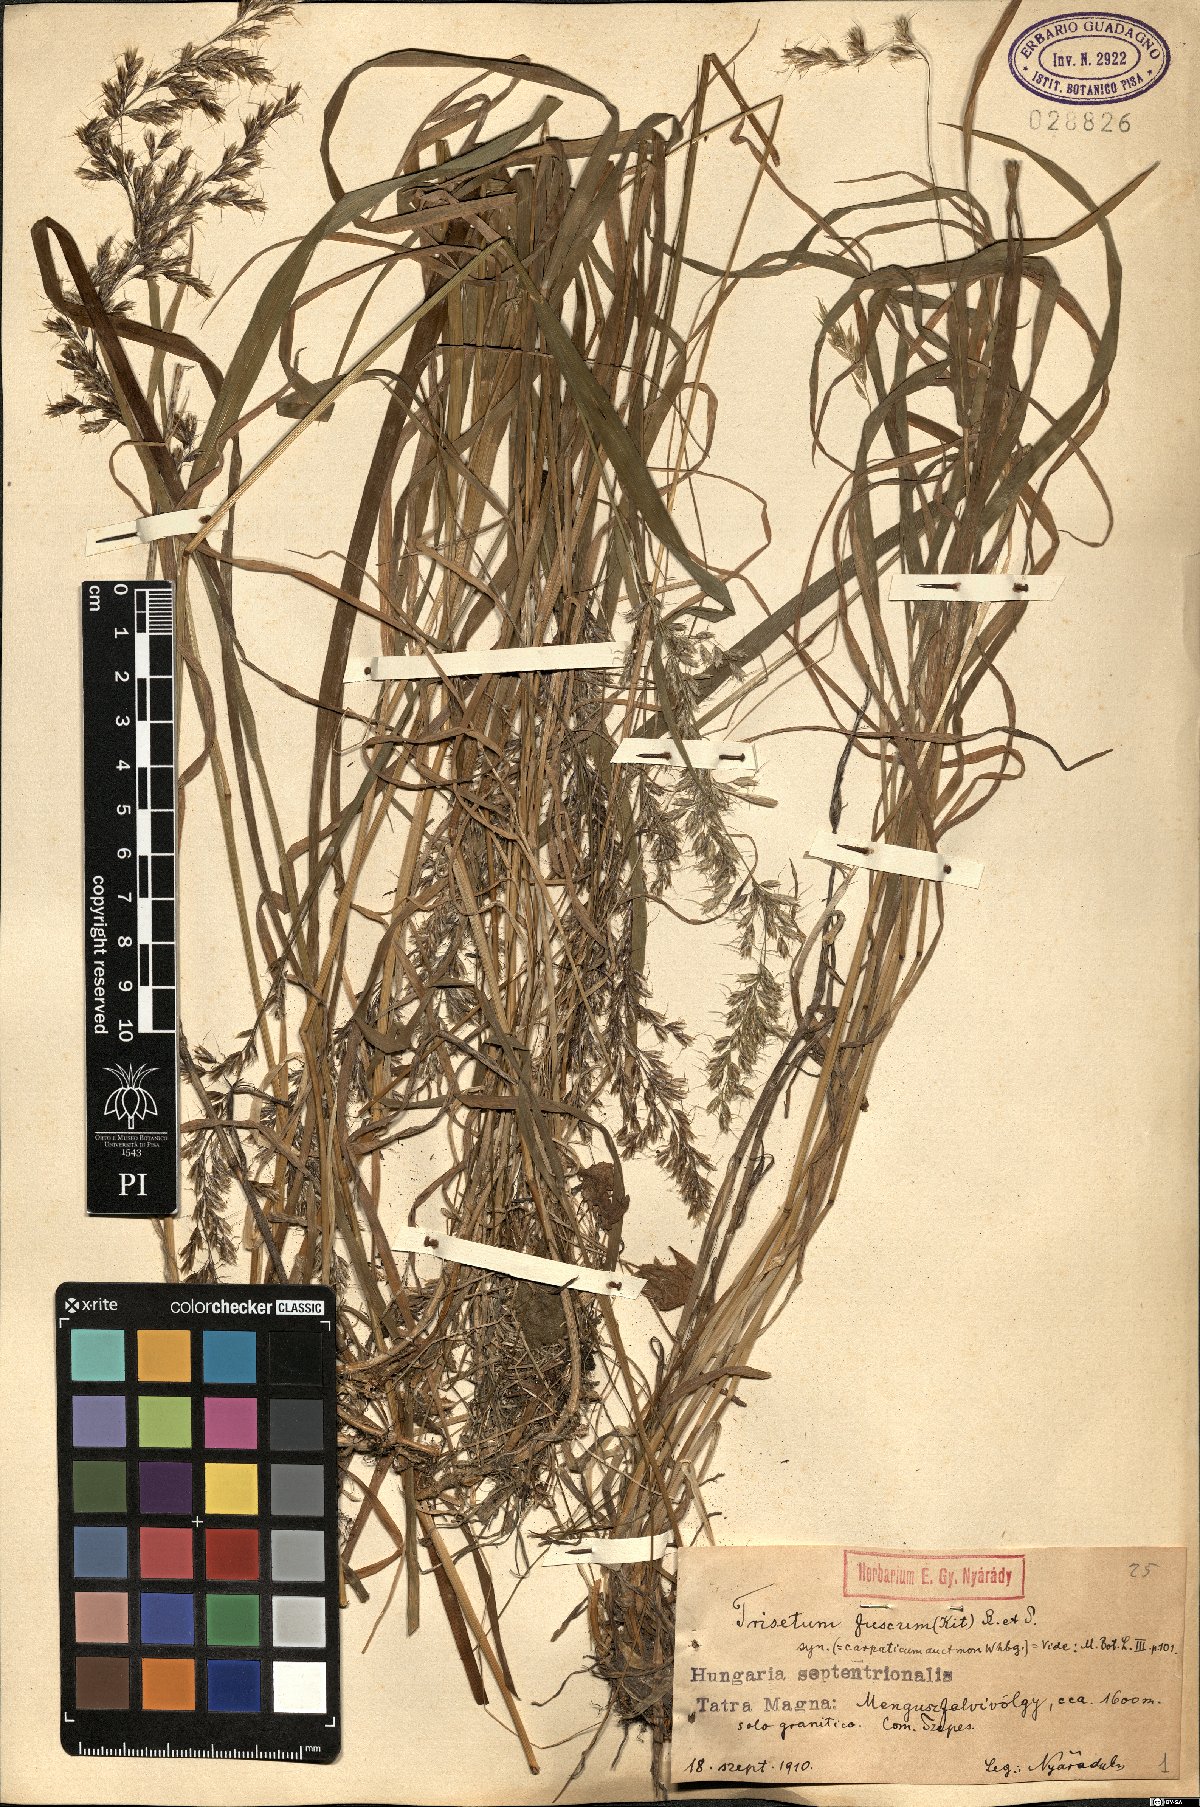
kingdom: Plantae
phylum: Tracheophyta
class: Liliopsida
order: Poales
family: Poaceae
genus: Trisetum
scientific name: Trisetum fuscum
